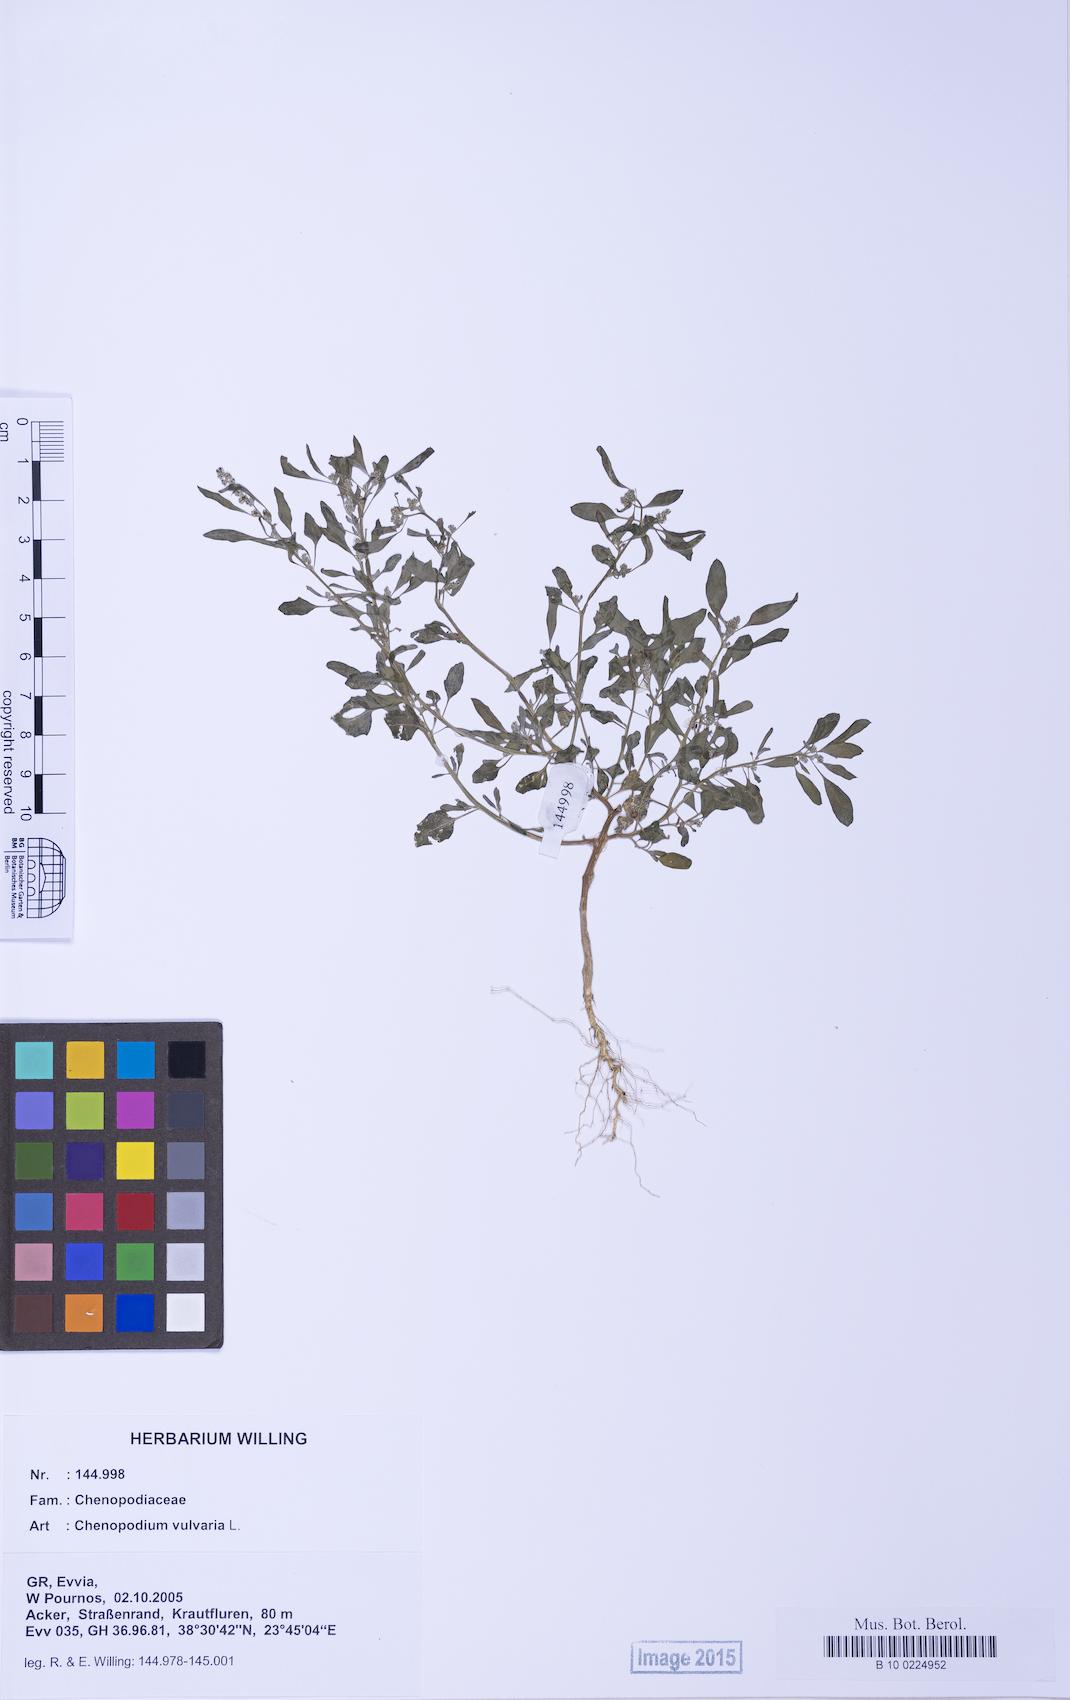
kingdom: Plantae
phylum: Tracheophyta
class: Magnoliopsida
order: Caryophyllales
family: Amaranthaceae
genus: Chenopodium
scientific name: Chenopodium vulvaria
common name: Stinking goosefoot
